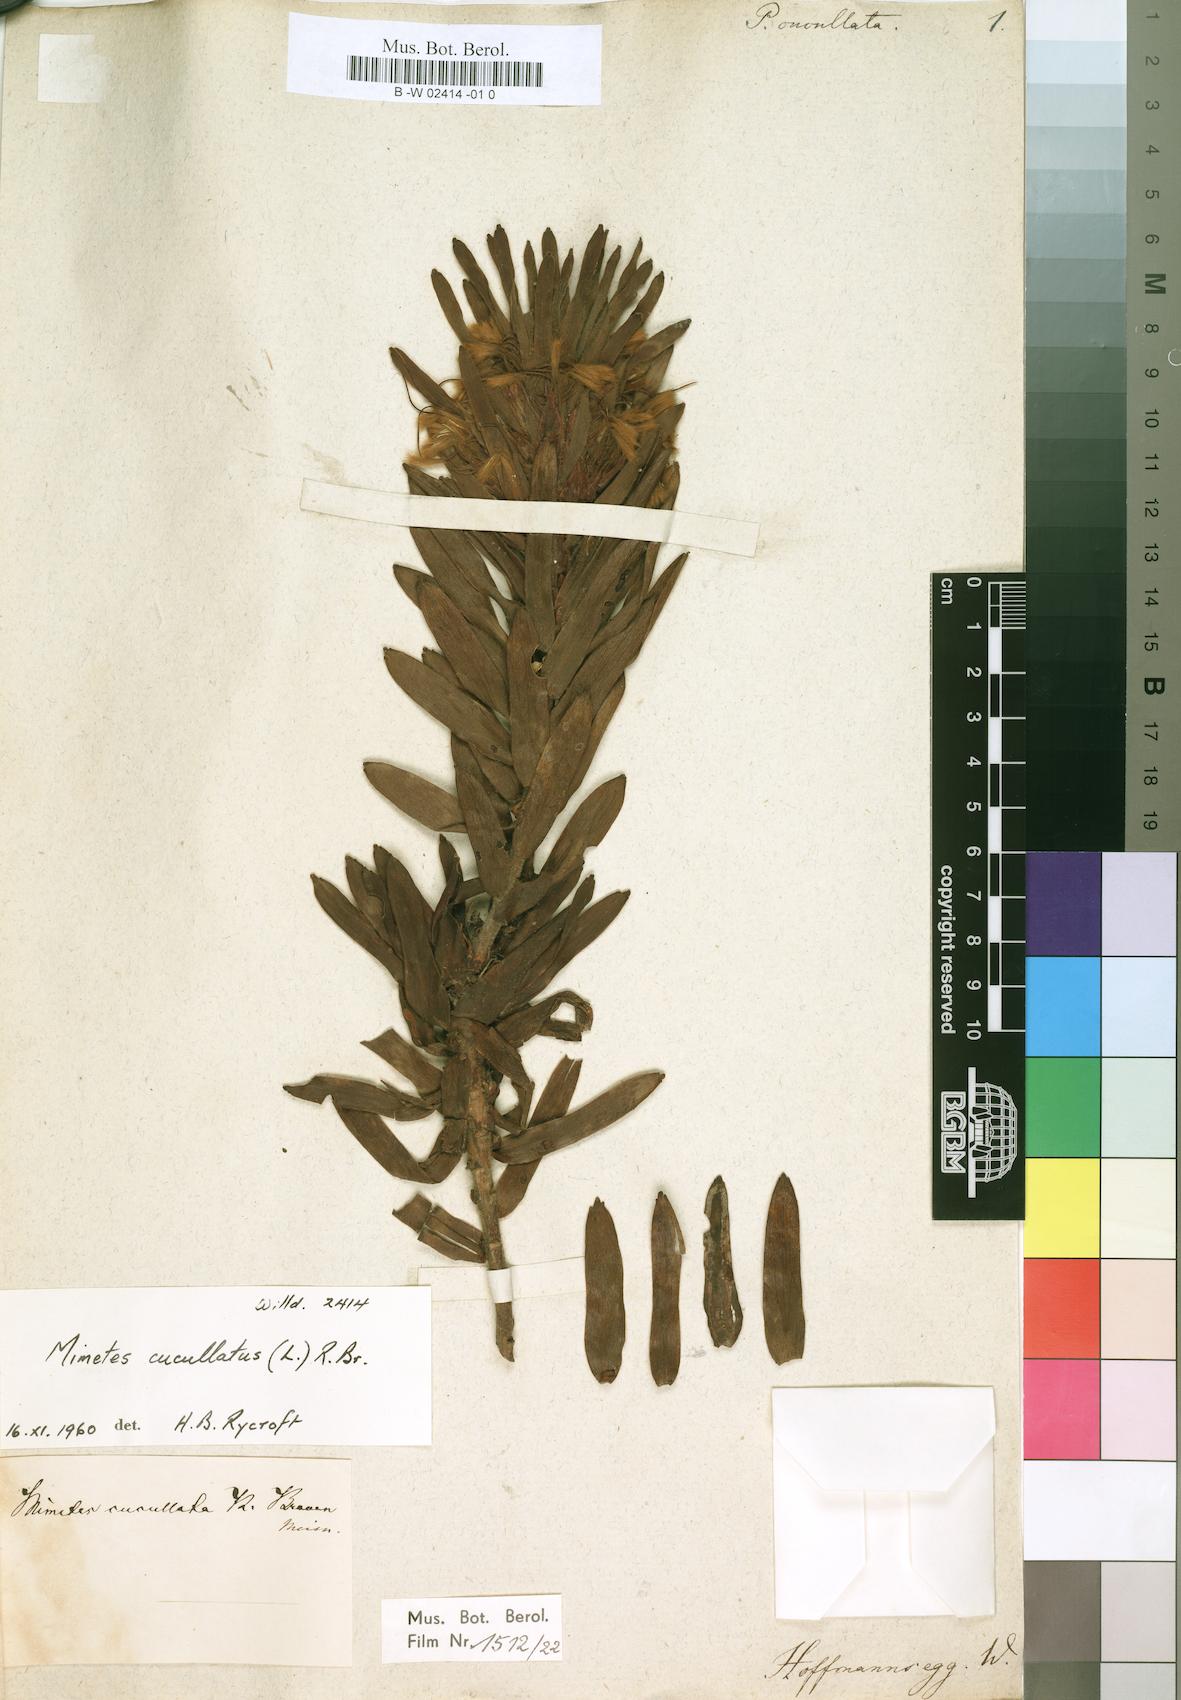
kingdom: Plantae
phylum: Tracheophyta
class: Magnoliopsida
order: Proteales
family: Proteaceae
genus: Mimetes
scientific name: Mimetes
